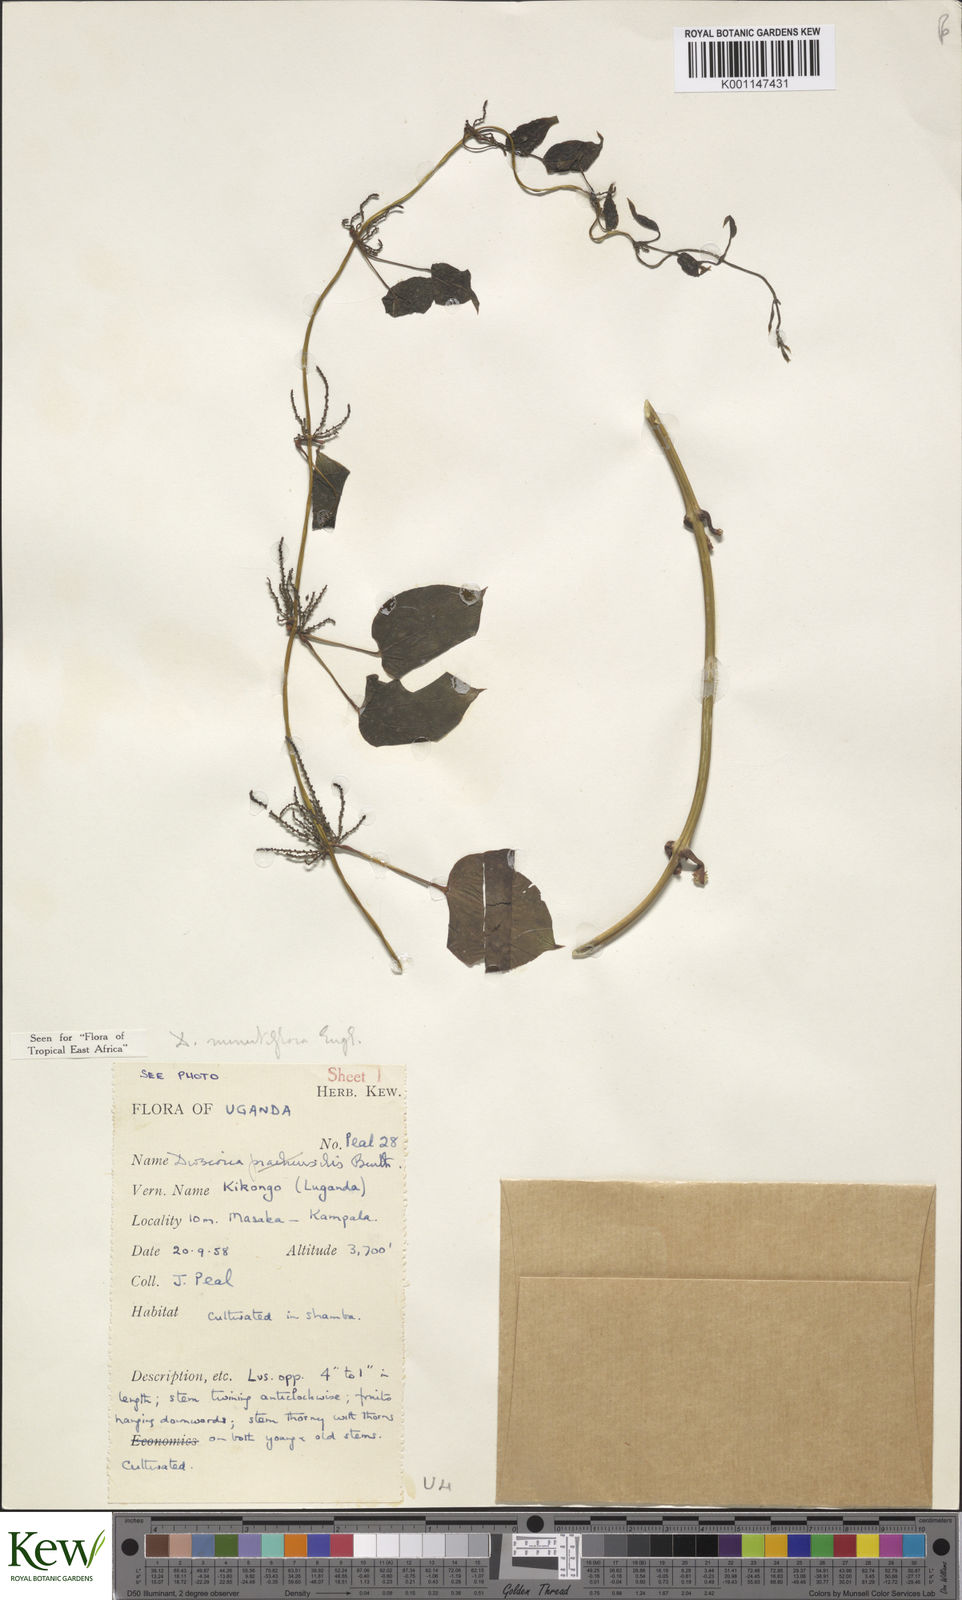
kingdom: Plantae
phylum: Tracheophyta
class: Liliopsida
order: Dioscoreales
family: Dioscoreaceae
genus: Dioscorea
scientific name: Dioscorea minutiflora
